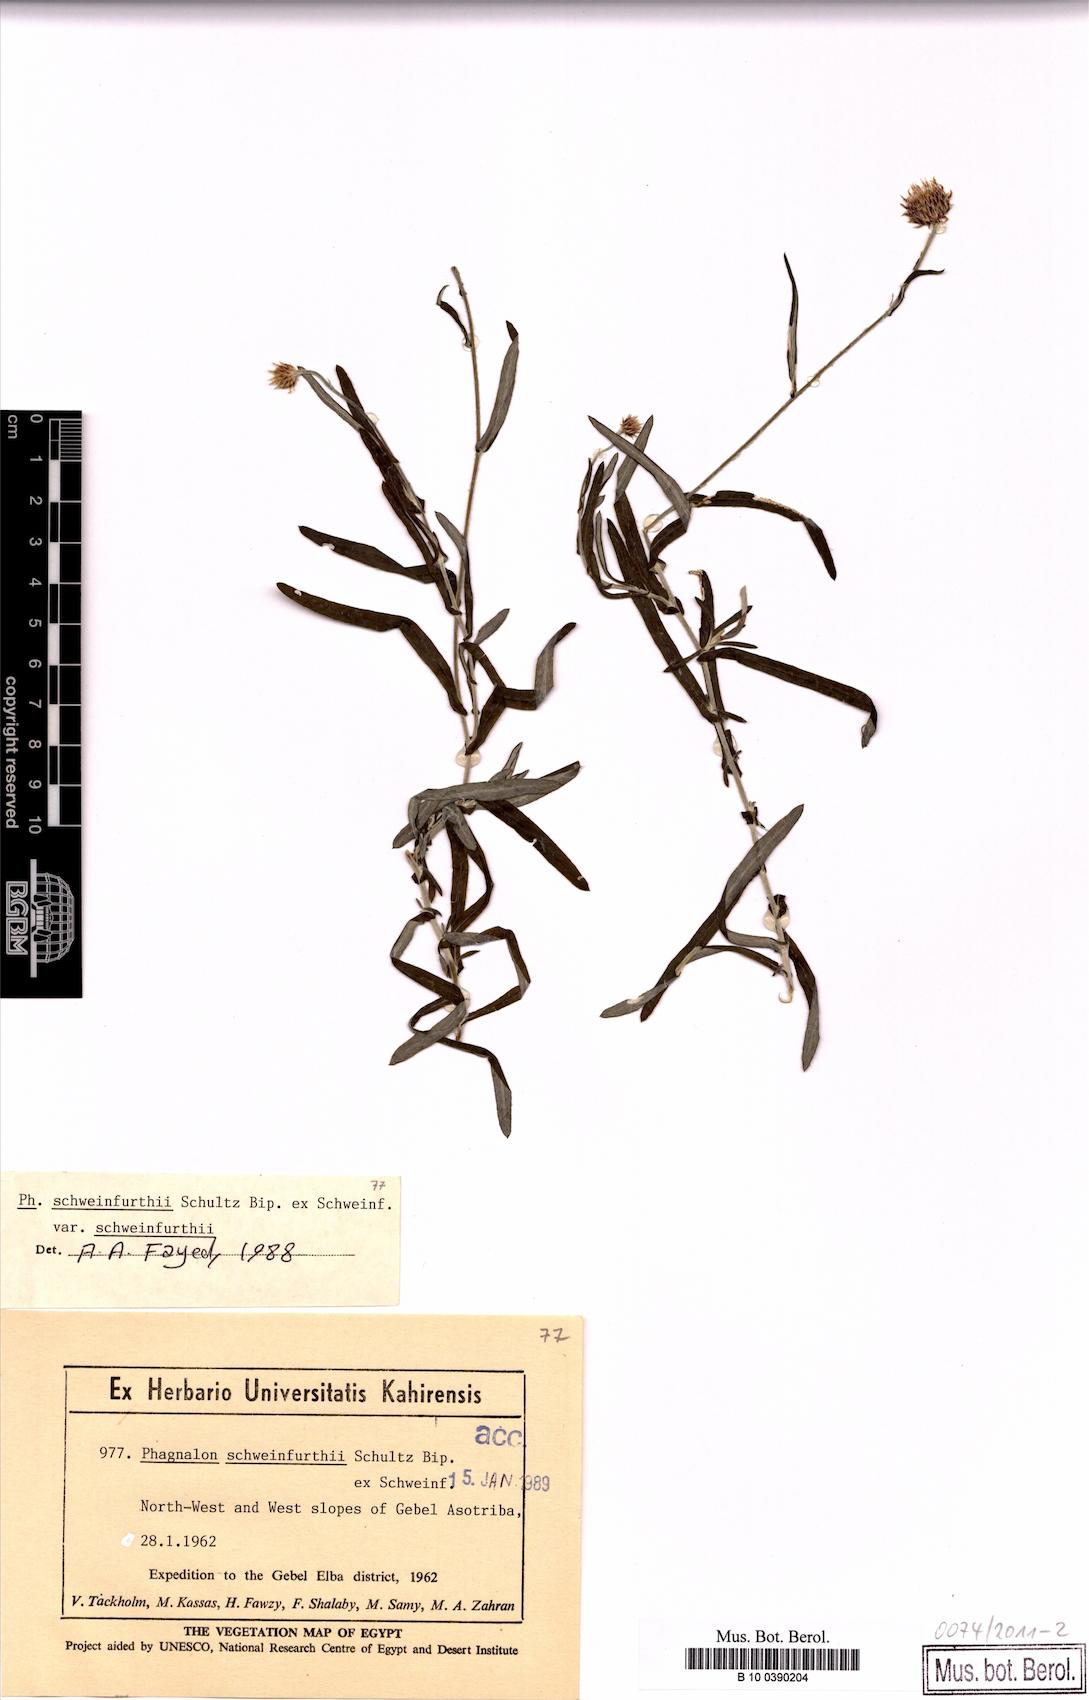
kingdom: Plantae
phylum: Tracheophyta
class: Magnoliopsida
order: Asterales
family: Asteraceae
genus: Phagnalon
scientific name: Phagnalon schweinfurthii
